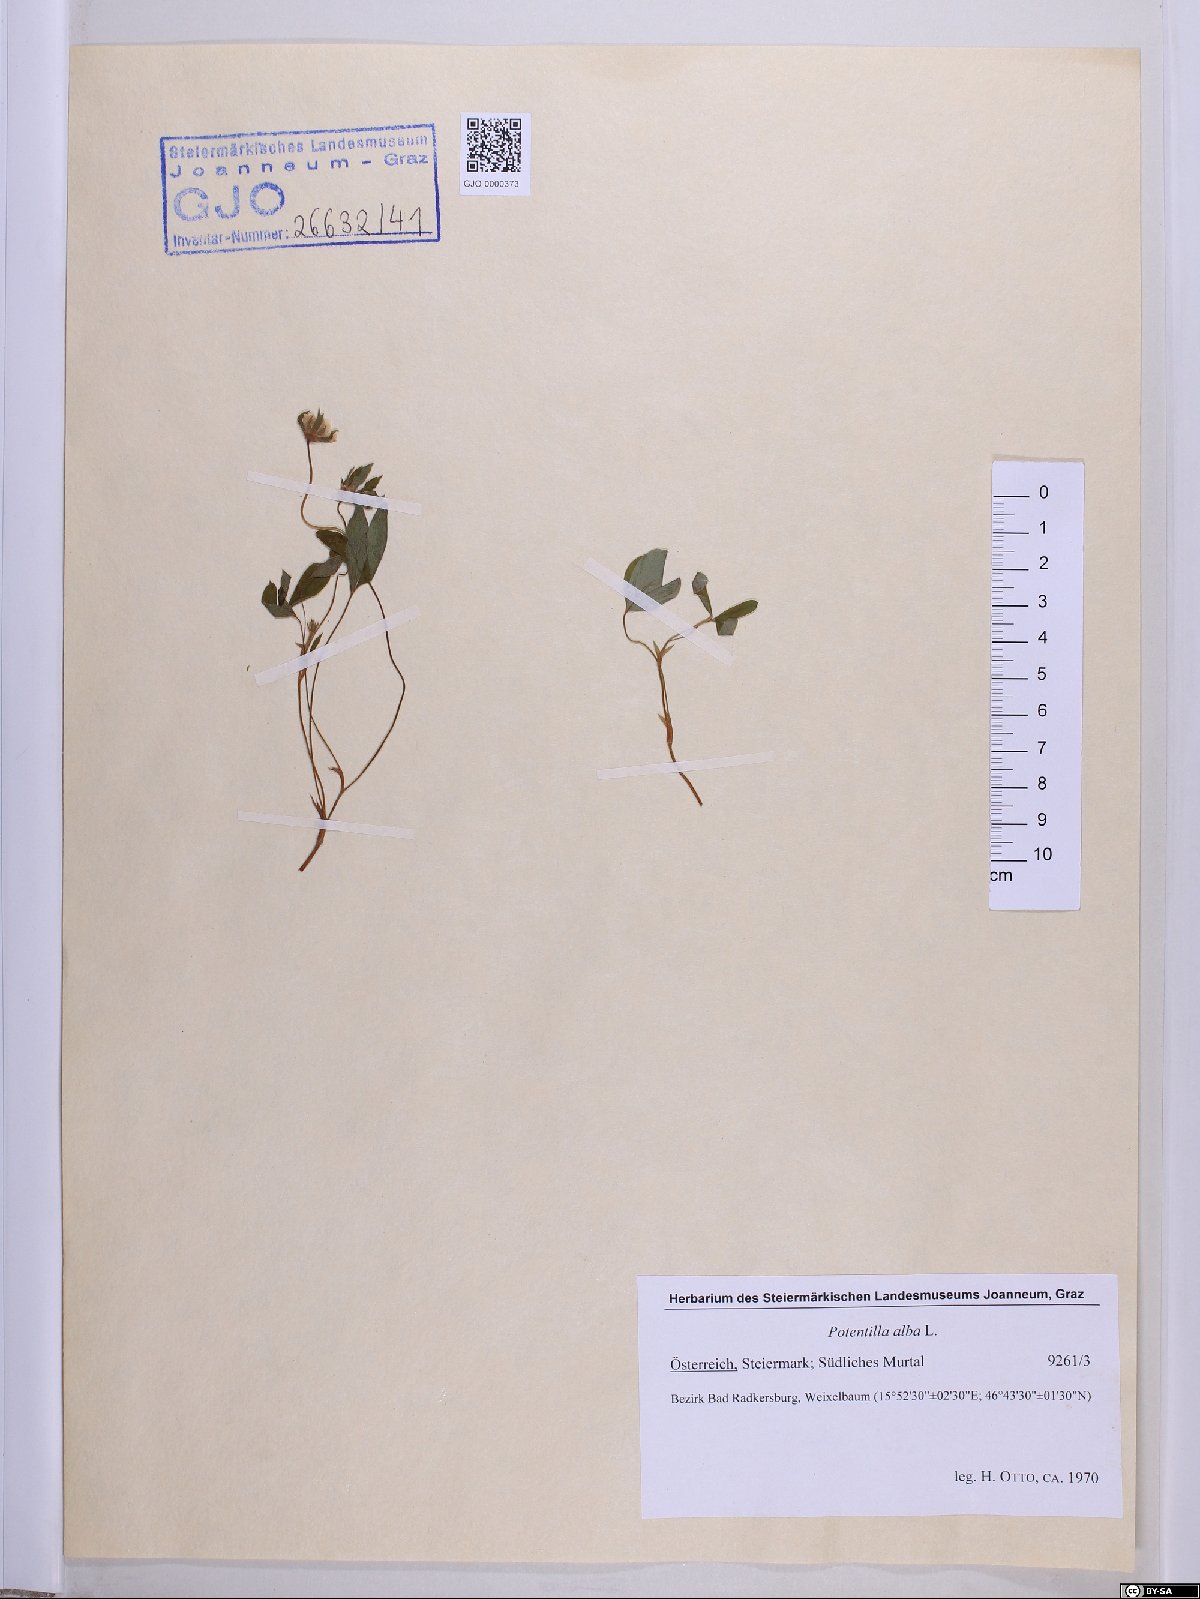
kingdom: Plantae
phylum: Tracheophyta
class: Magnoliopsida
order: Rosales
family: Rosaceae
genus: Potentilla
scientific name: Potentilla alba
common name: White cinquefoil
